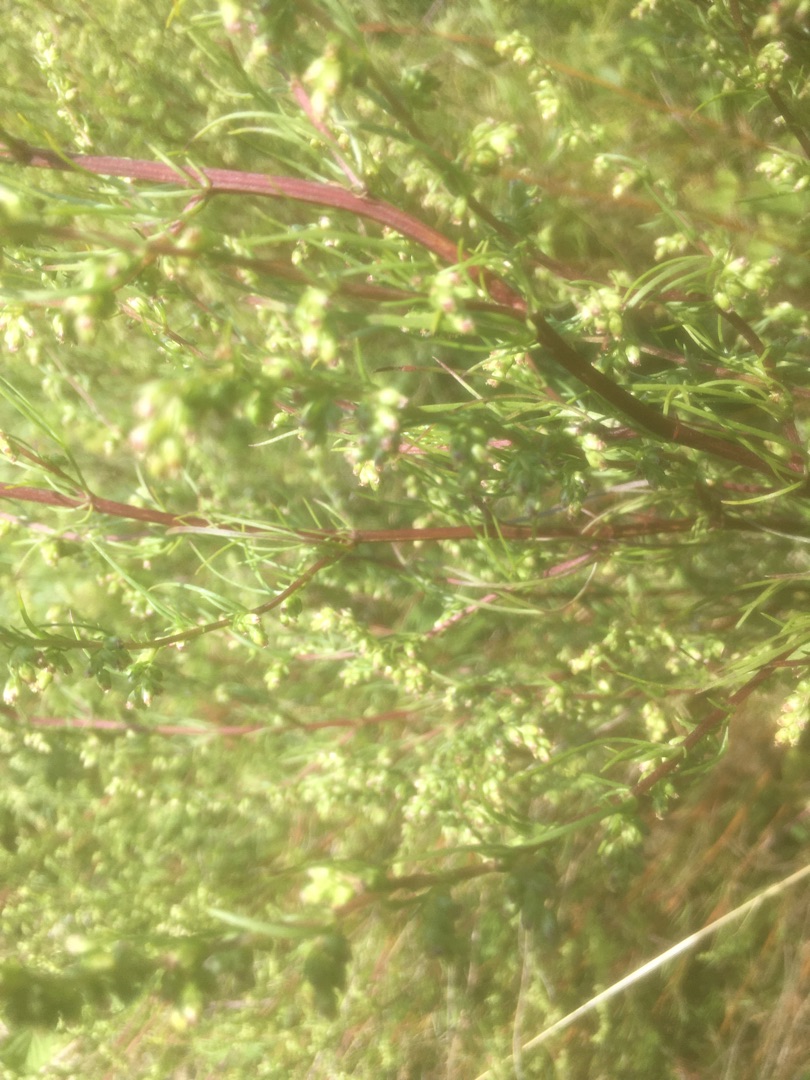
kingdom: Plantae
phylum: Tracheophyta
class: Magnoliopsida
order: Asterales
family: Asteraceae
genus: Artemisia
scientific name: Artemisia campestris
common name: Mark-bynke
